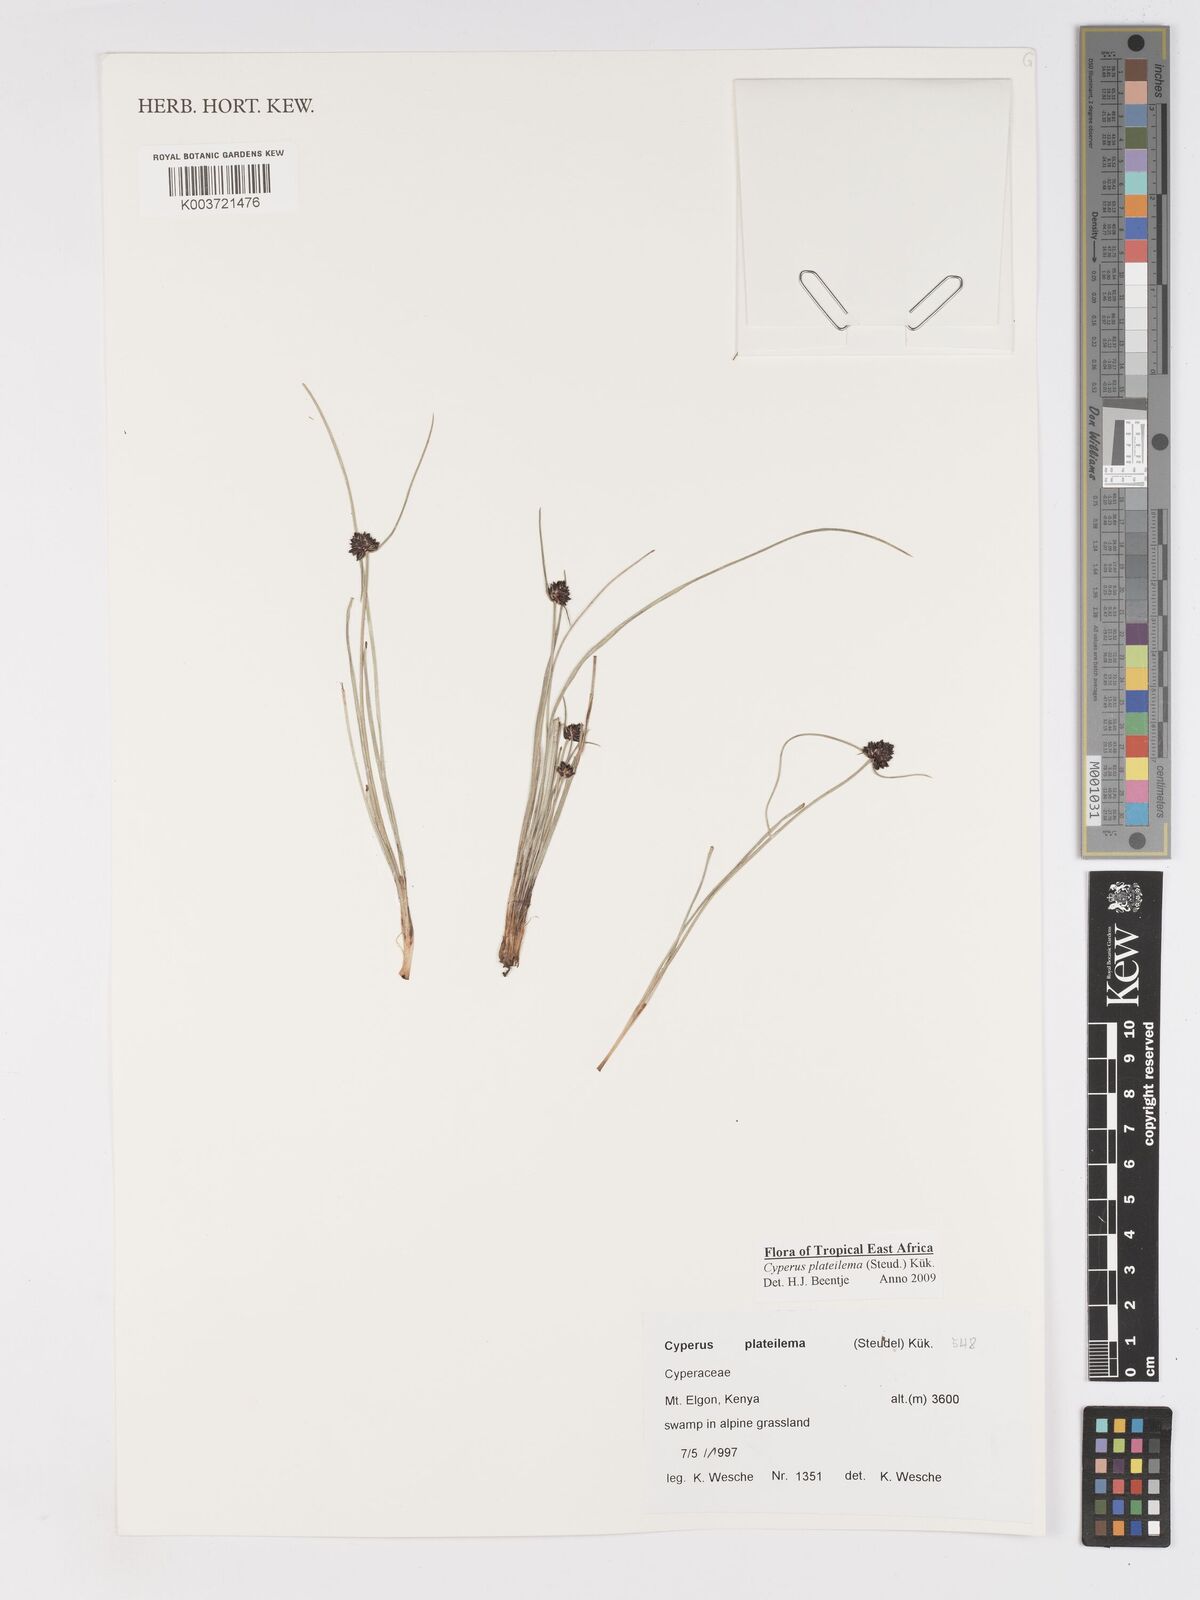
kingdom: Plantae
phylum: Tracheophyta
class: Liliopsida
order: Poales
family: Cyperaceae
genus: Cyperus
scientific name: Cyperus plateilema
